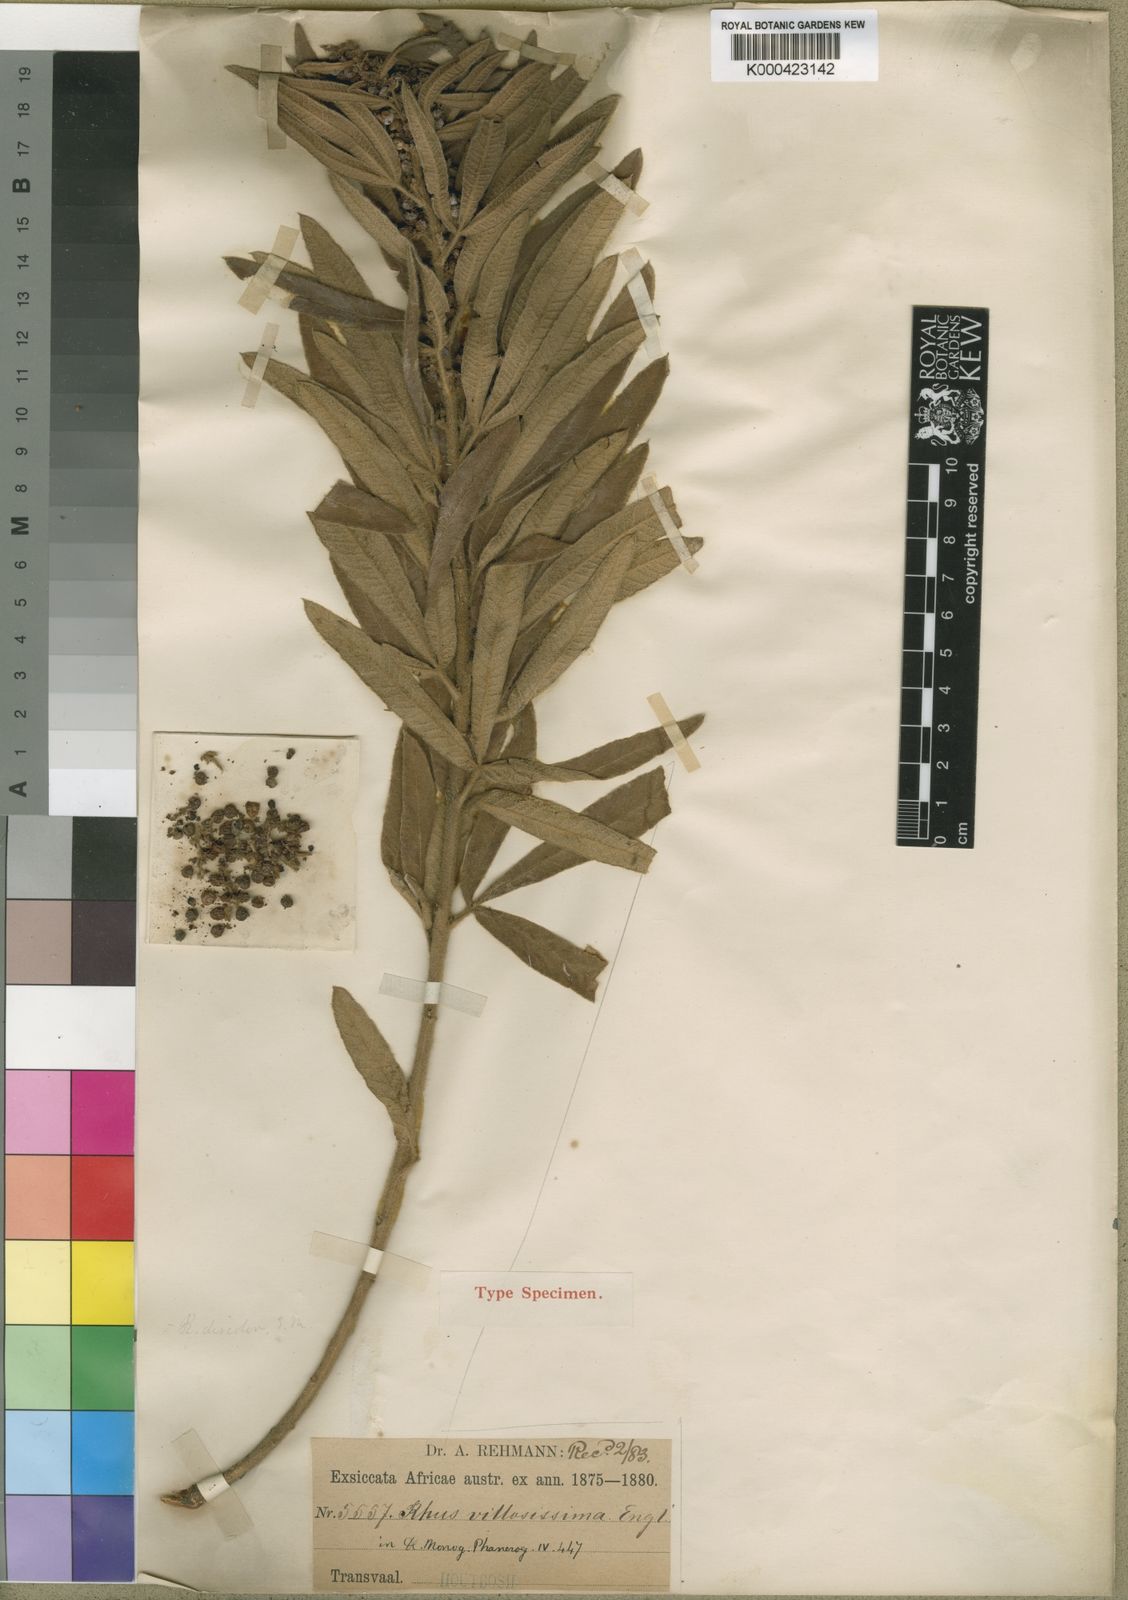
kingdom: Plantae
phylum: Tracheophyta
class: Magnoliopsida
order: Sapindales
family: Anacardiaceae
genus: Rhus
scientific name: Rhus
